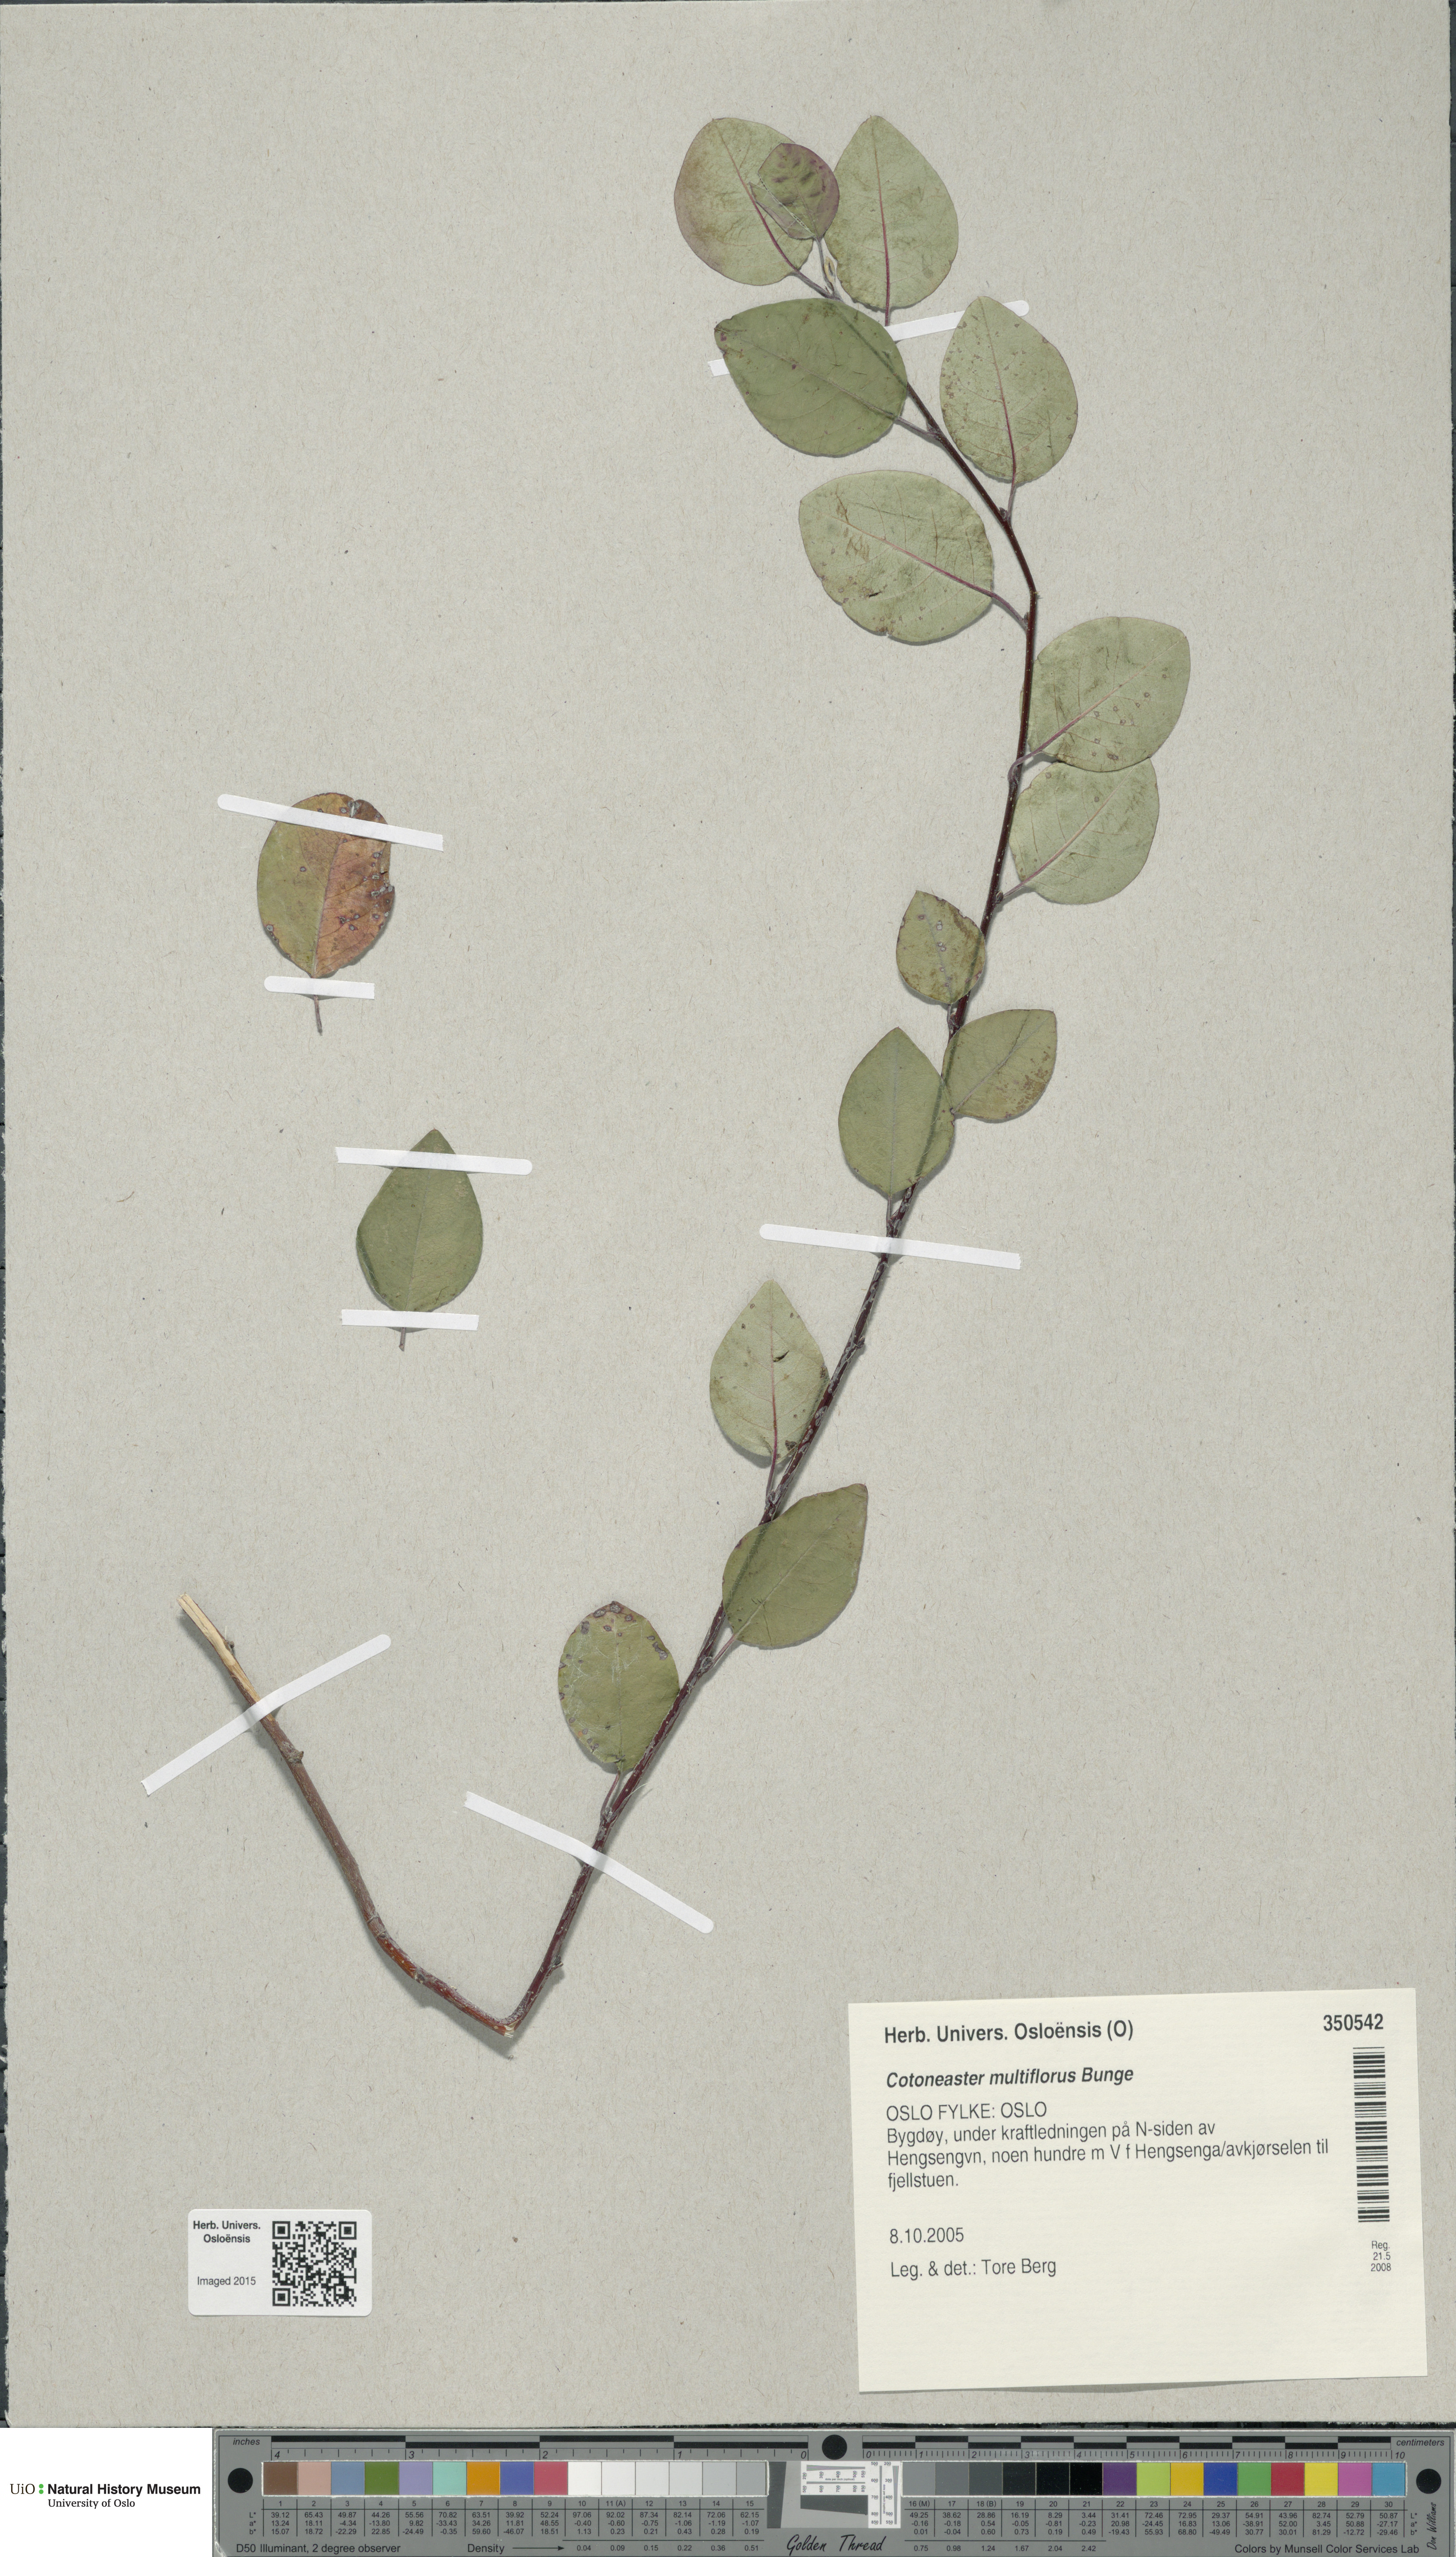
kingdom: Plantae
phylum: Tracheophyta
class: Magnoliopsida
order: Rosales
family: Rosaceae
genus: Cotoneaster
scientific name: Cotoneaster multiflorus
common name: Cotoneaster
